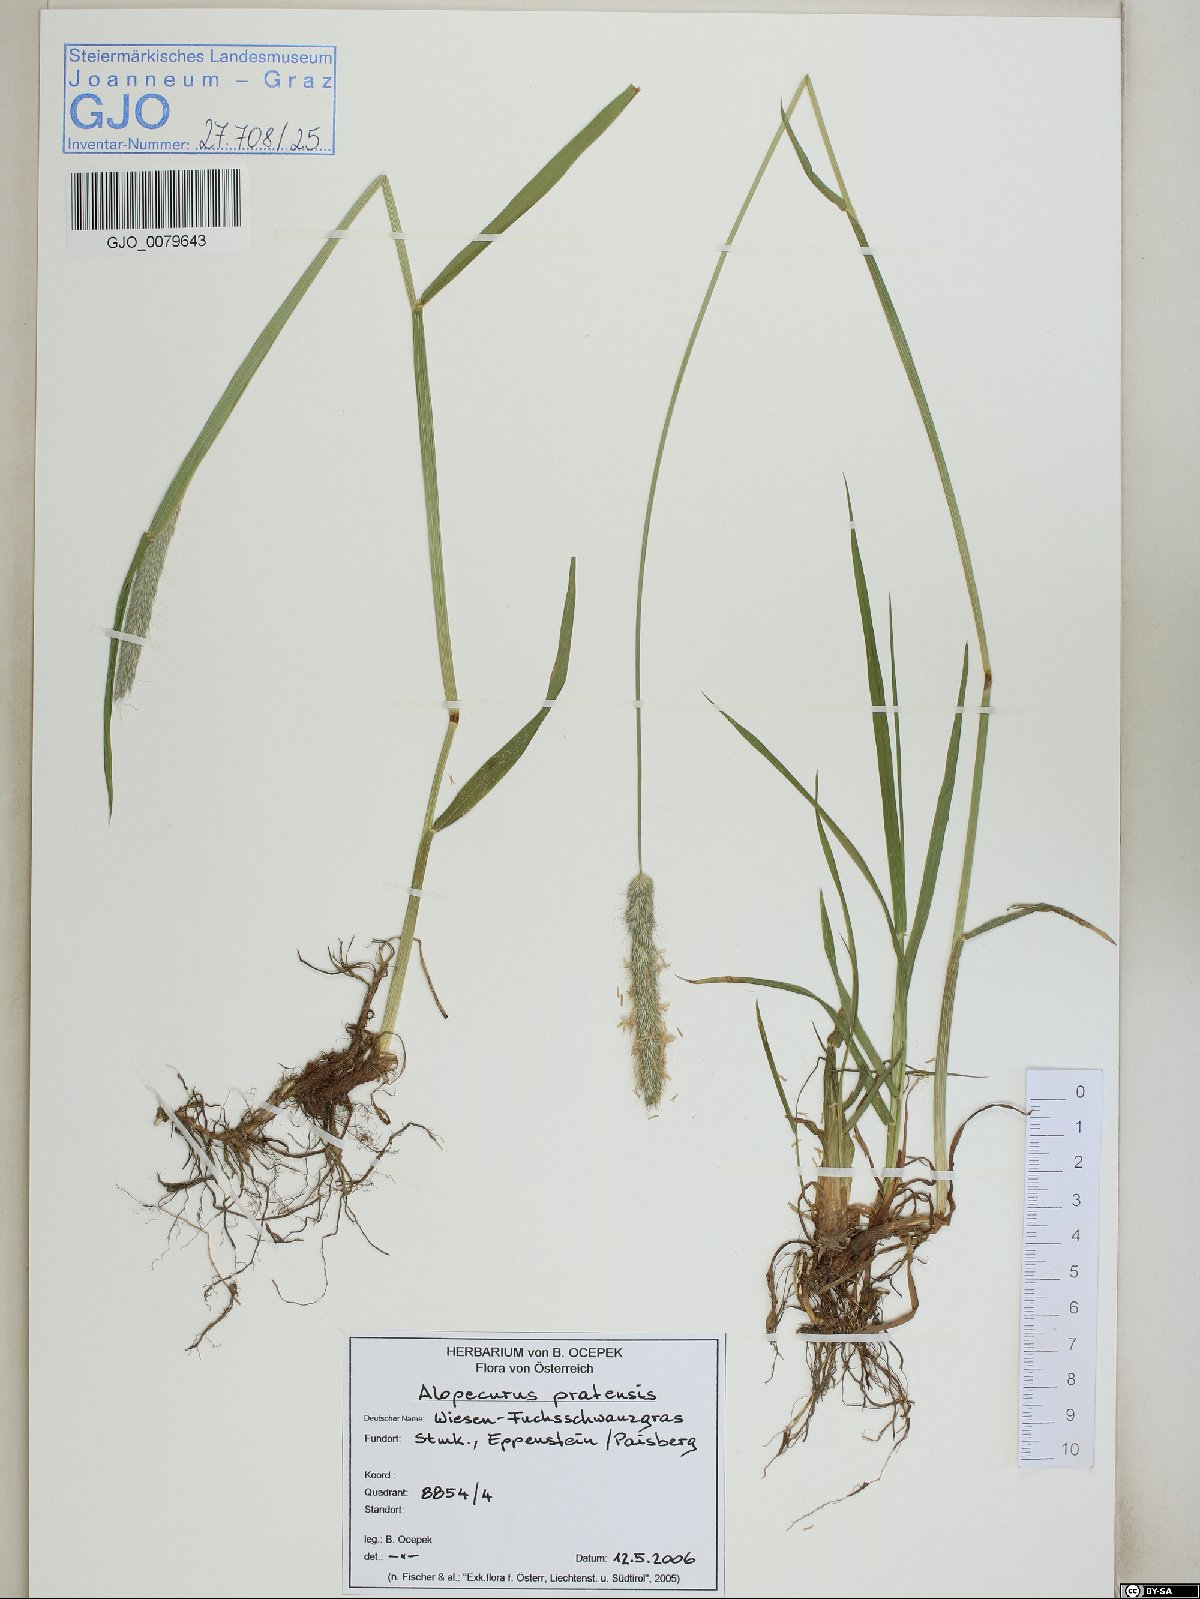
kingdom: Plantae
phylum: Tracheophyta
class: Liliopsida
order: Poales
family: Poaceae
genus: Alopecurus
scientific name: Alopecurus pratensis
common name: Meadow foxtail
